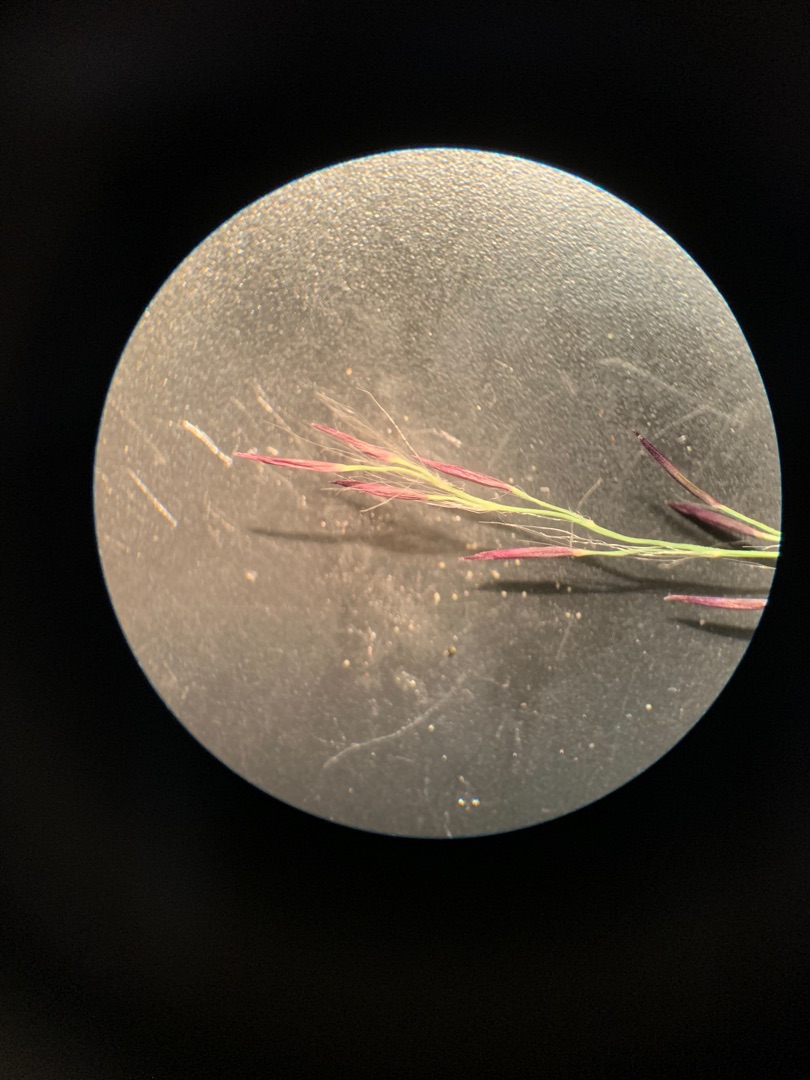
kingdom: Plantae
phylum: Tracheophyta
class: Liliopsida
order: Poales
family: Poaceae
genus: Phragmites
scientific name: Phragmites australis
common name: Tagrør
